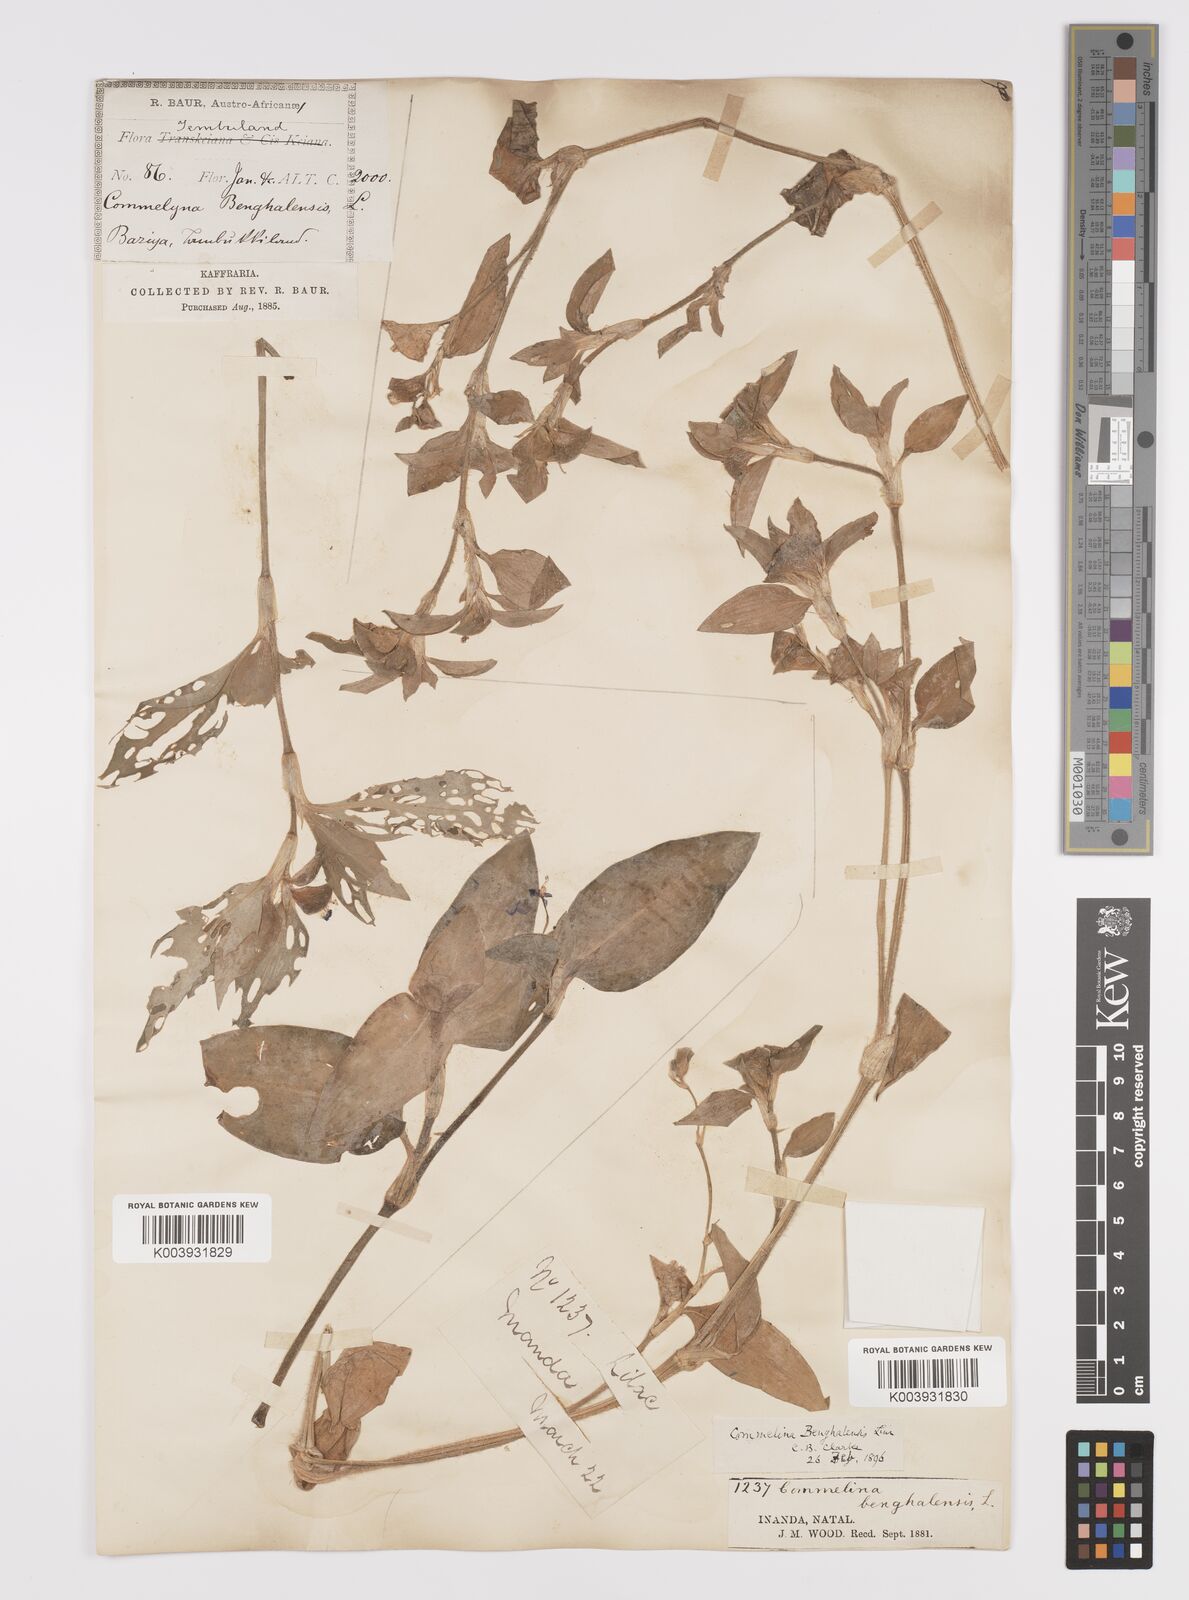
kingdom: Plantae
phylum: Tracheophyta
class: Liliopsida
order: Commelinales
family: Commelinaceae
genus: Commelina
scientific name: Commelina benghalensis
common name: Jio
